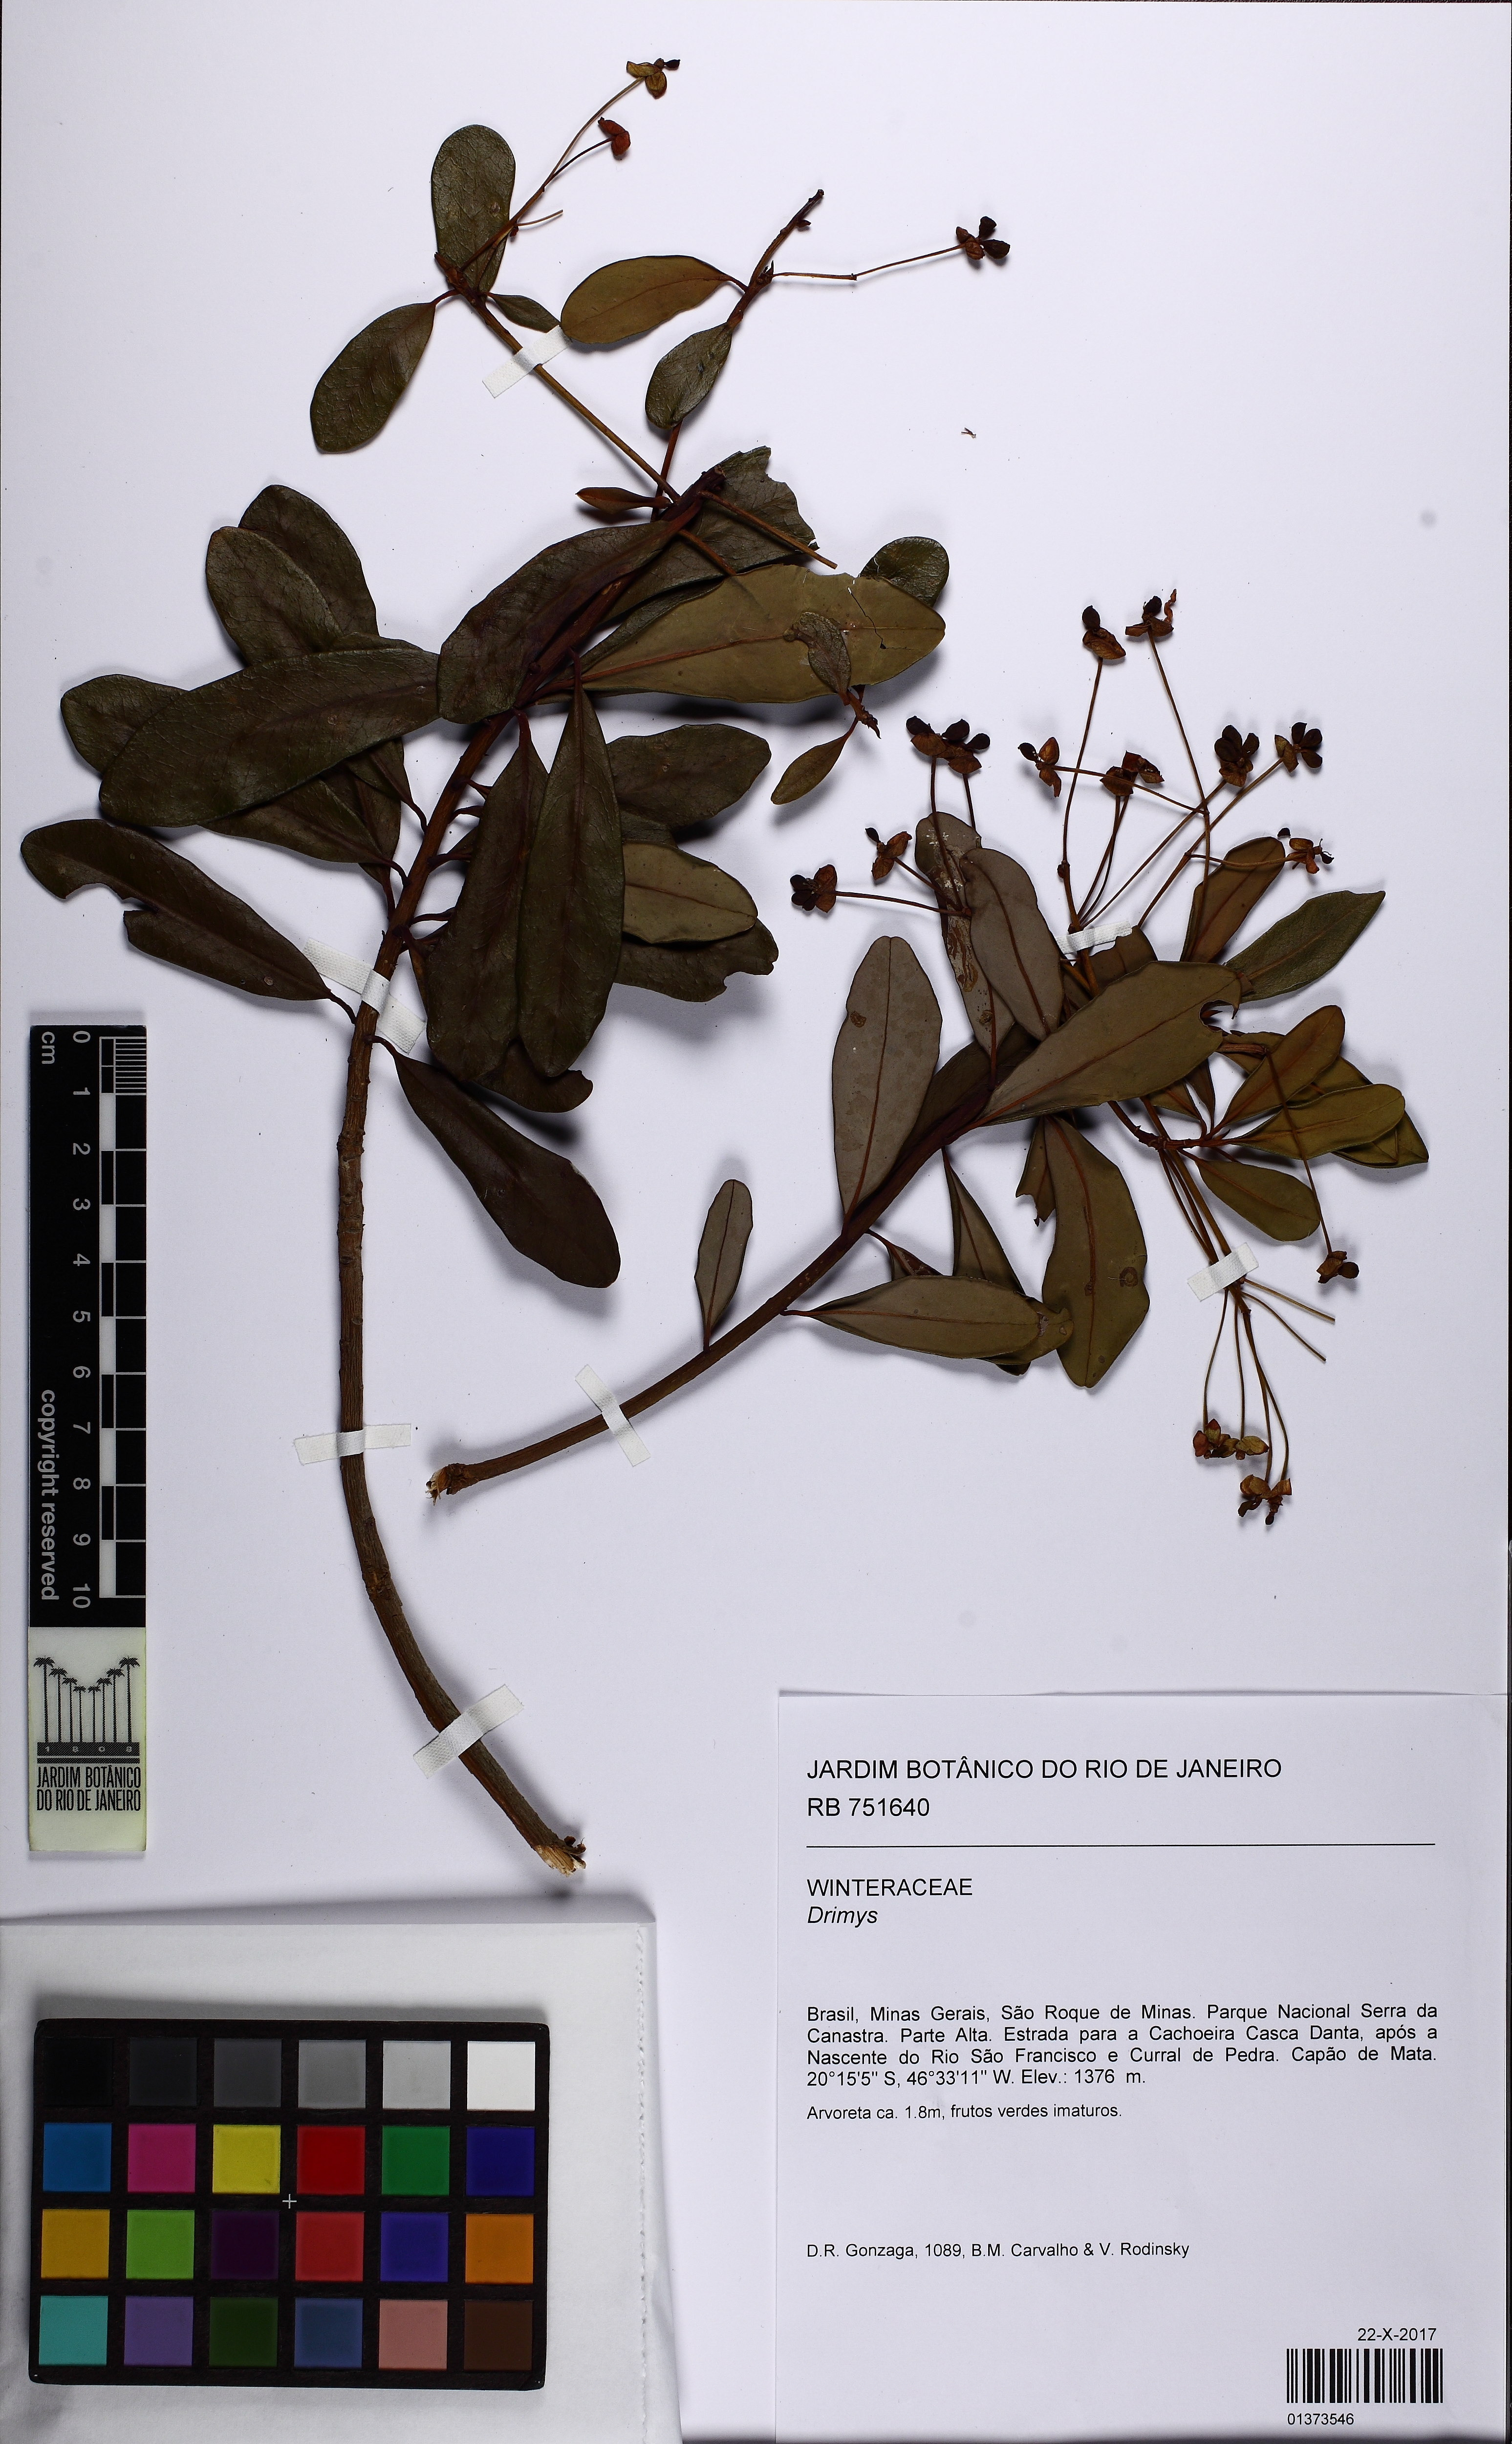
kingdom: Plantae
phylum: Tracheophyta
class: Magnoliopsida
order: Canellales
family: Winteraceae
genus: Drimys
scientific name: Drimys
